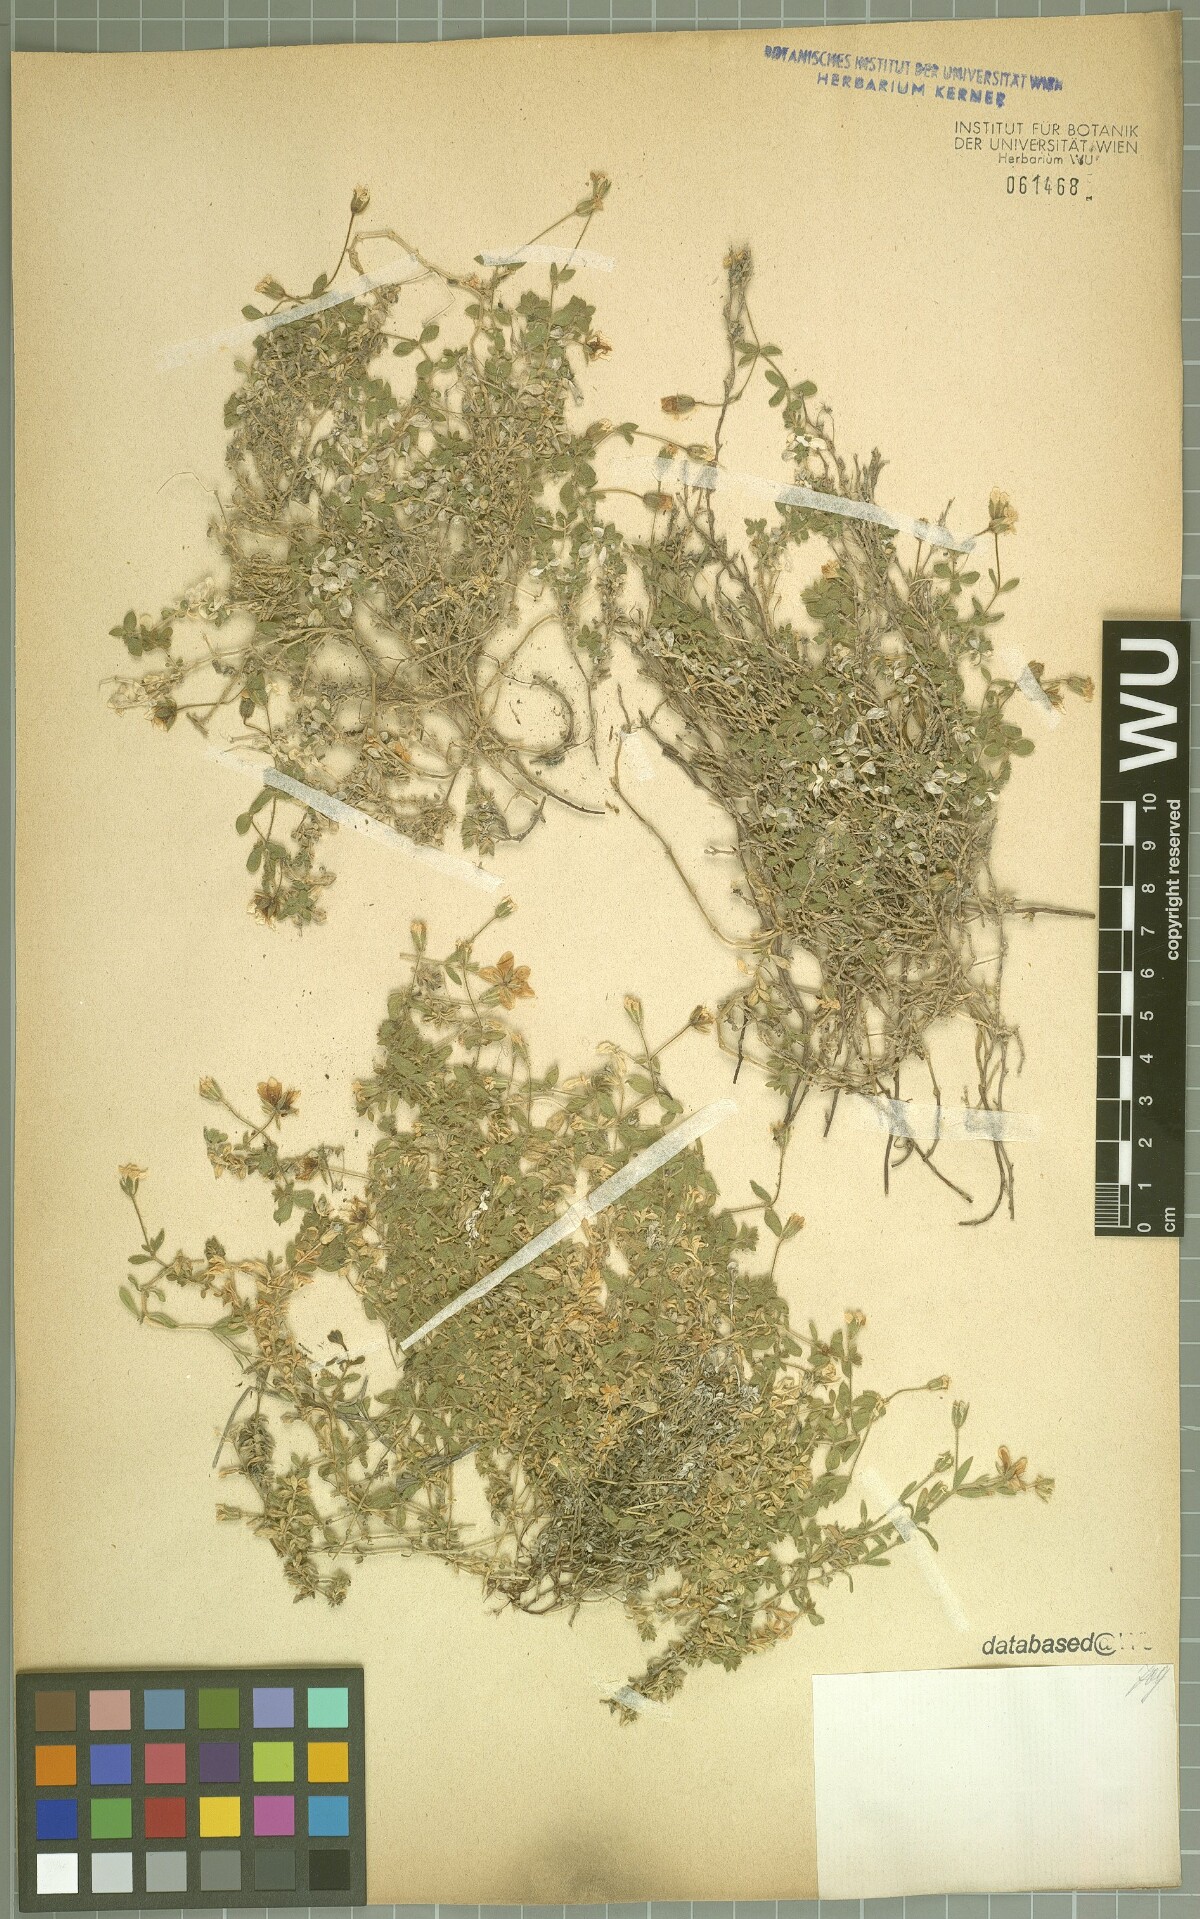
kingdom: Plantae
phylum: Tracheophyta
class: Magnoliopsida
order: Caryophyllales
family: Caryophyllaceae
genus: Arenaria
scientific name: Arenaria huteri
